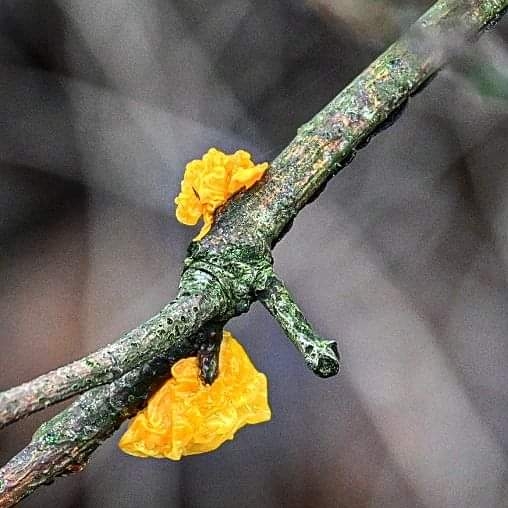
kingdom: Fungi
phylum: Basidiomycota
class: Tremellomycetes
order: Tremellales
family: Tremellaceae
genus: Tremella
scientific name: Tremella mesenterica
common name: gul bævresvamp
